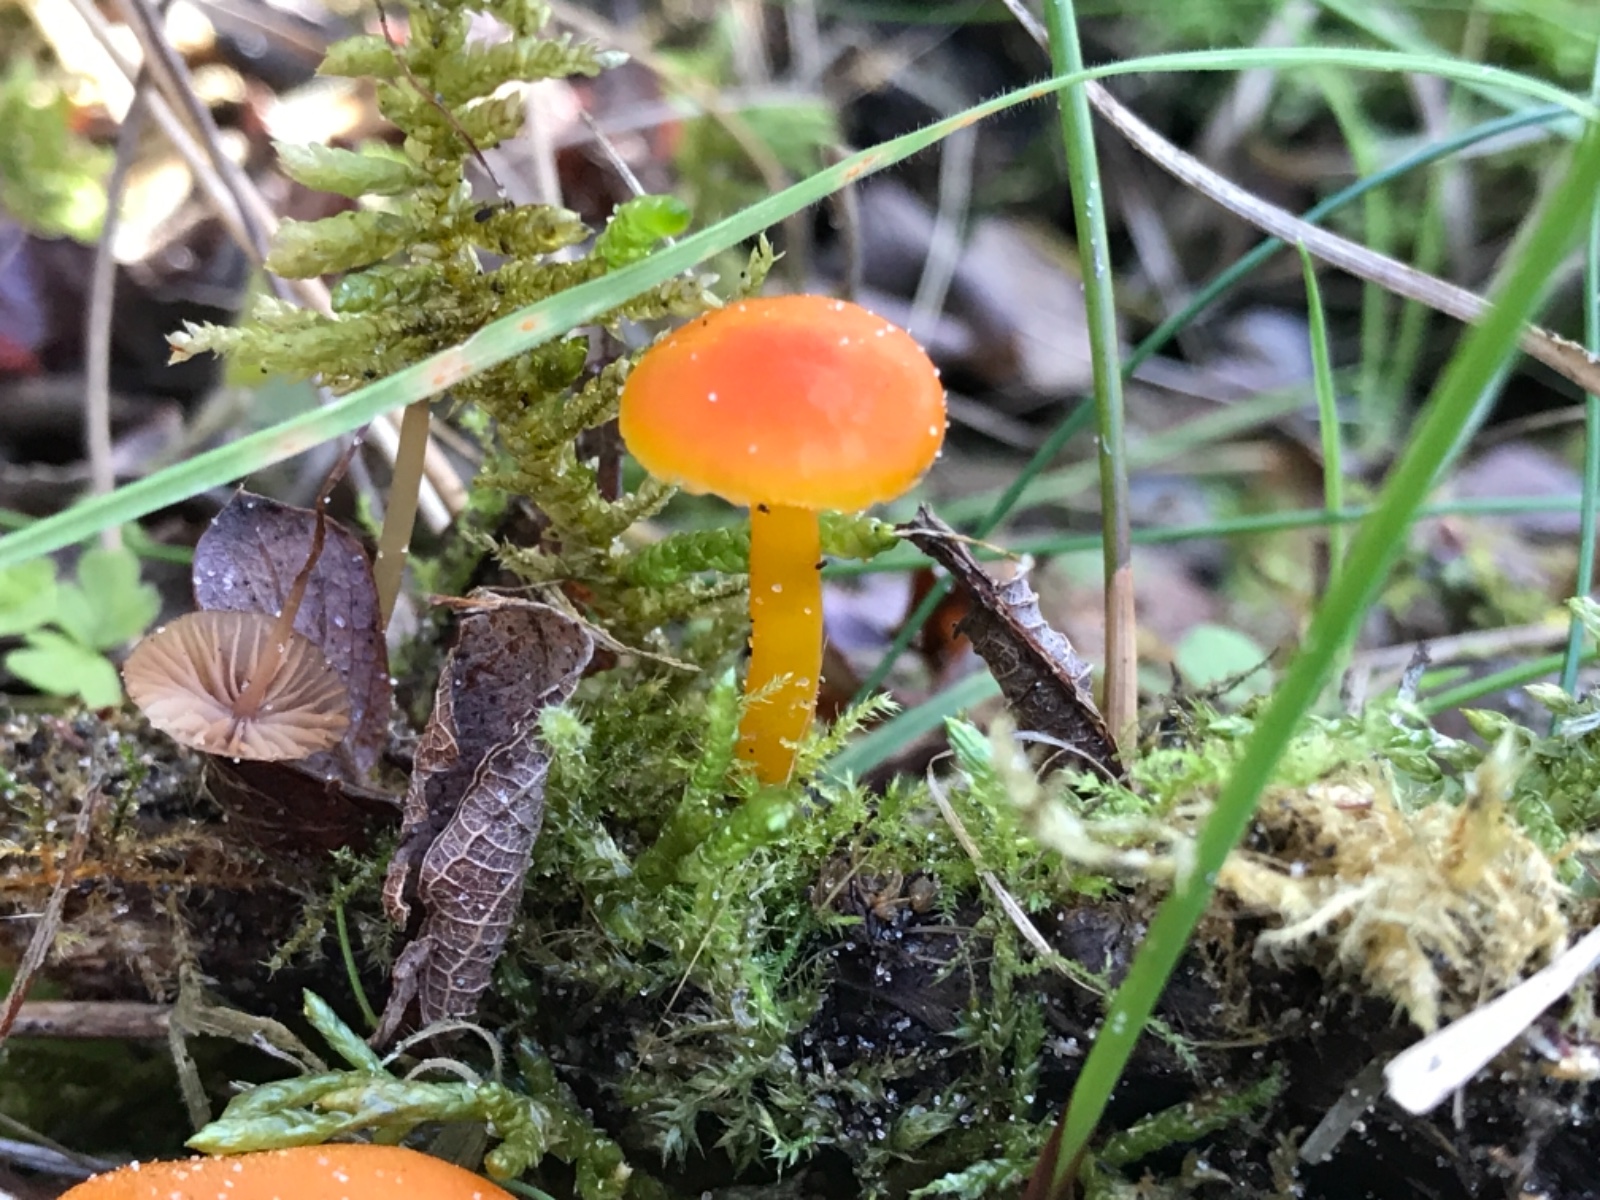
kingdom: Fungi
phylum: Basidiomycota
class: Agaricomycetes
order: Agaricales
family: Hygrophoraceae
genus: Hygrocybe
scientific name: Hygrocybe
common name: vokshat
